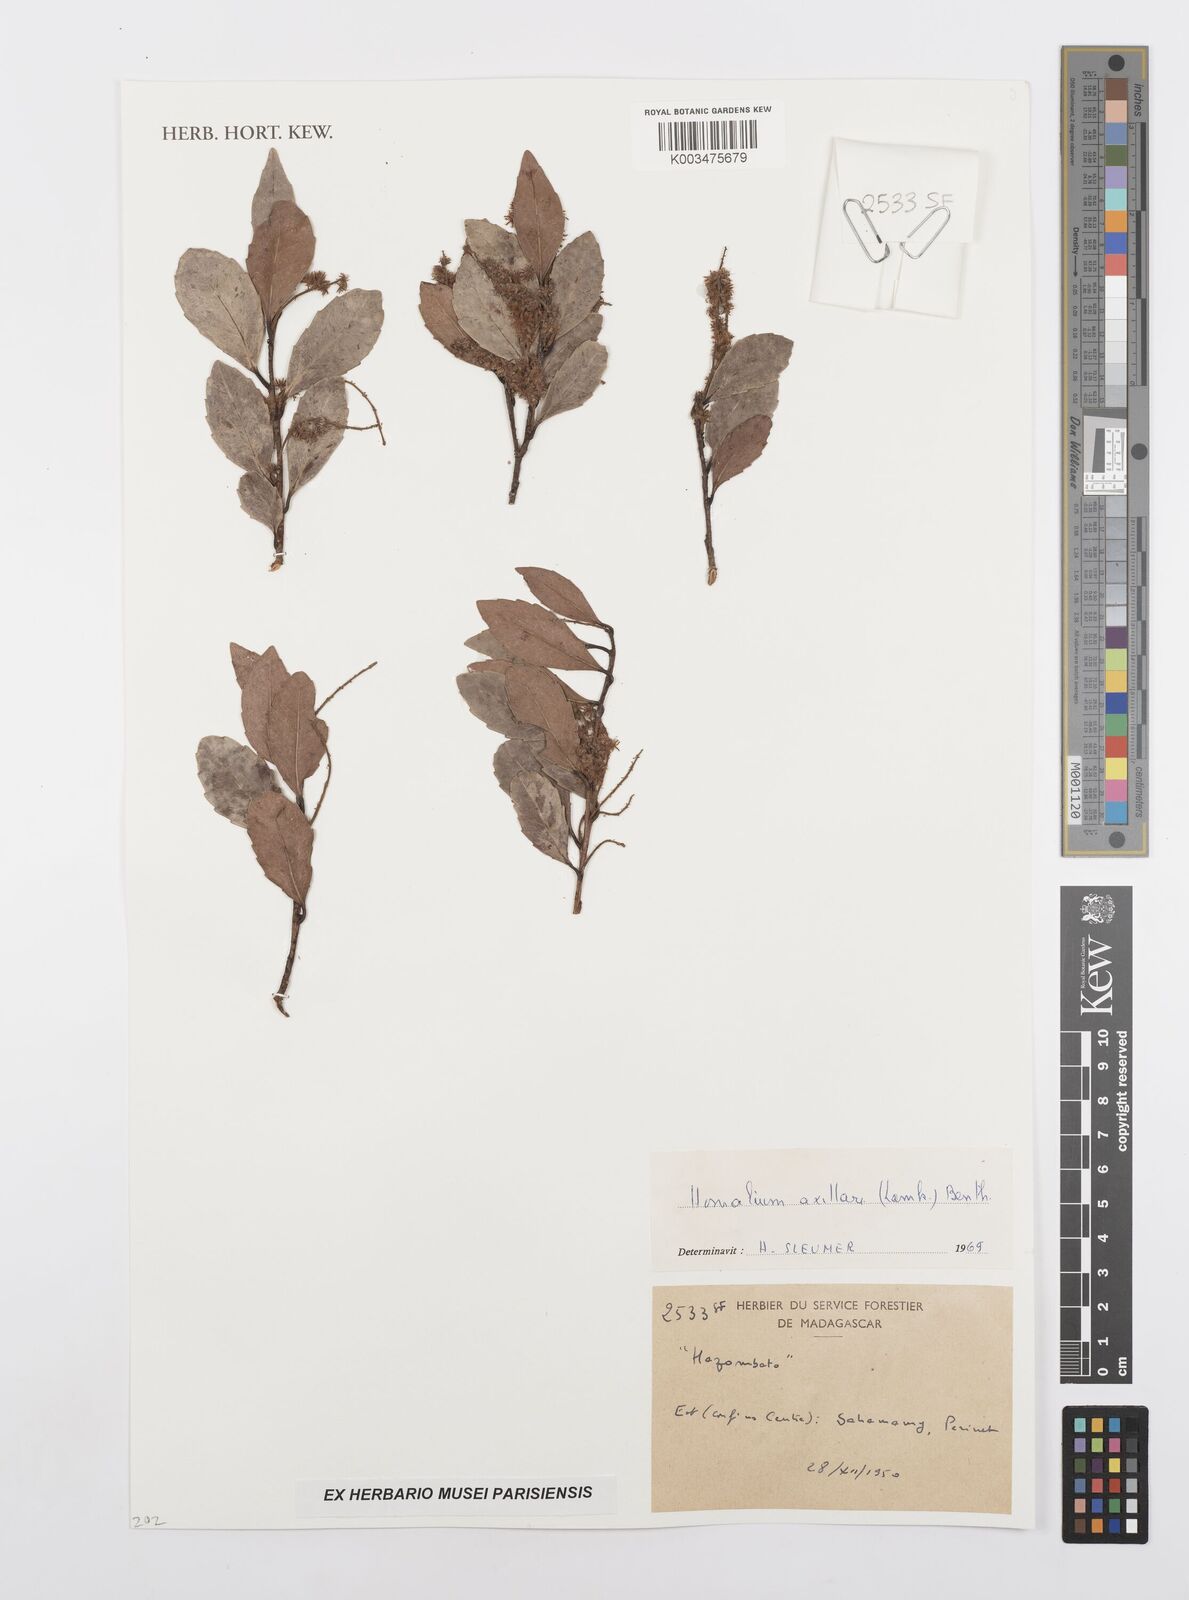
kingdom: Plantae
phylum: Tracheophyta
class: Magnoliopsida
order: Malpighiales
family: Salicaceae
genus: Homalium
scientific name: Homalium axillare
